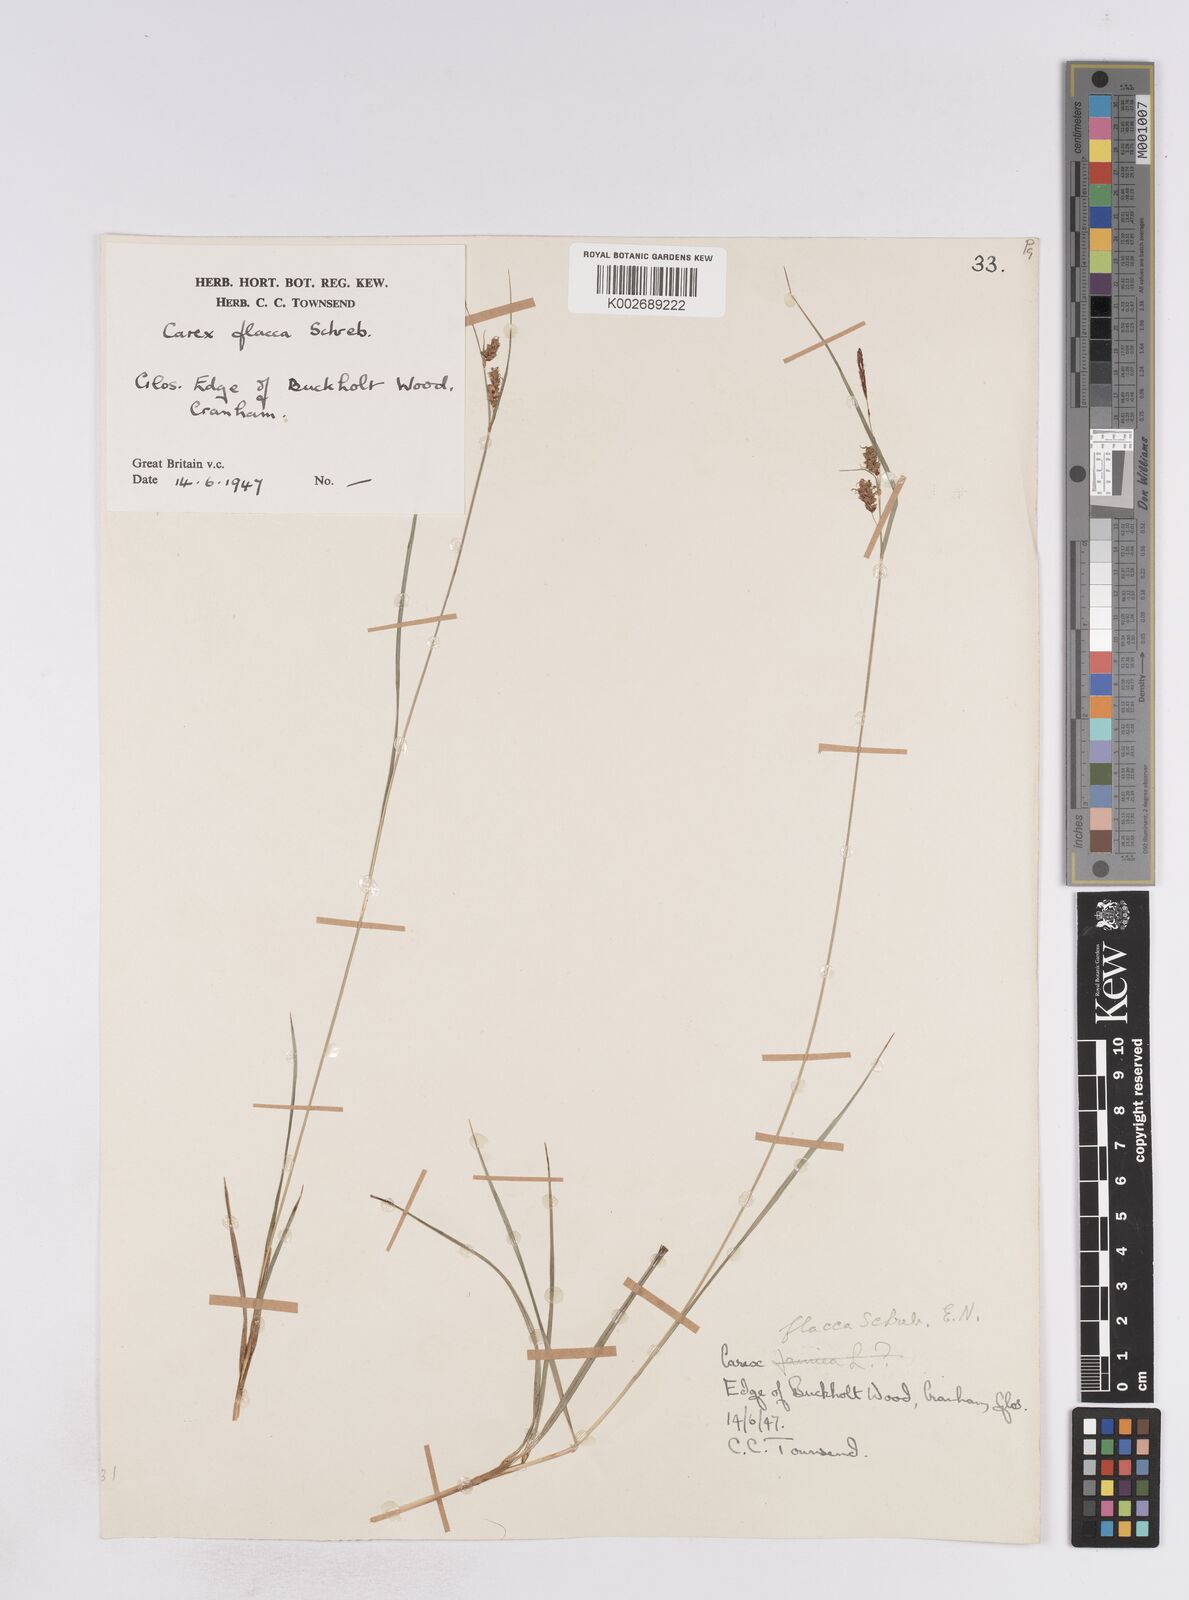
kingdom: Plantae
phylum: Tracheophyta
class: Liliopsida
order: Poales
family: Cyperaceae
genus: Carex
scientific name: Carex flacca
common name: Glaucous sedge
